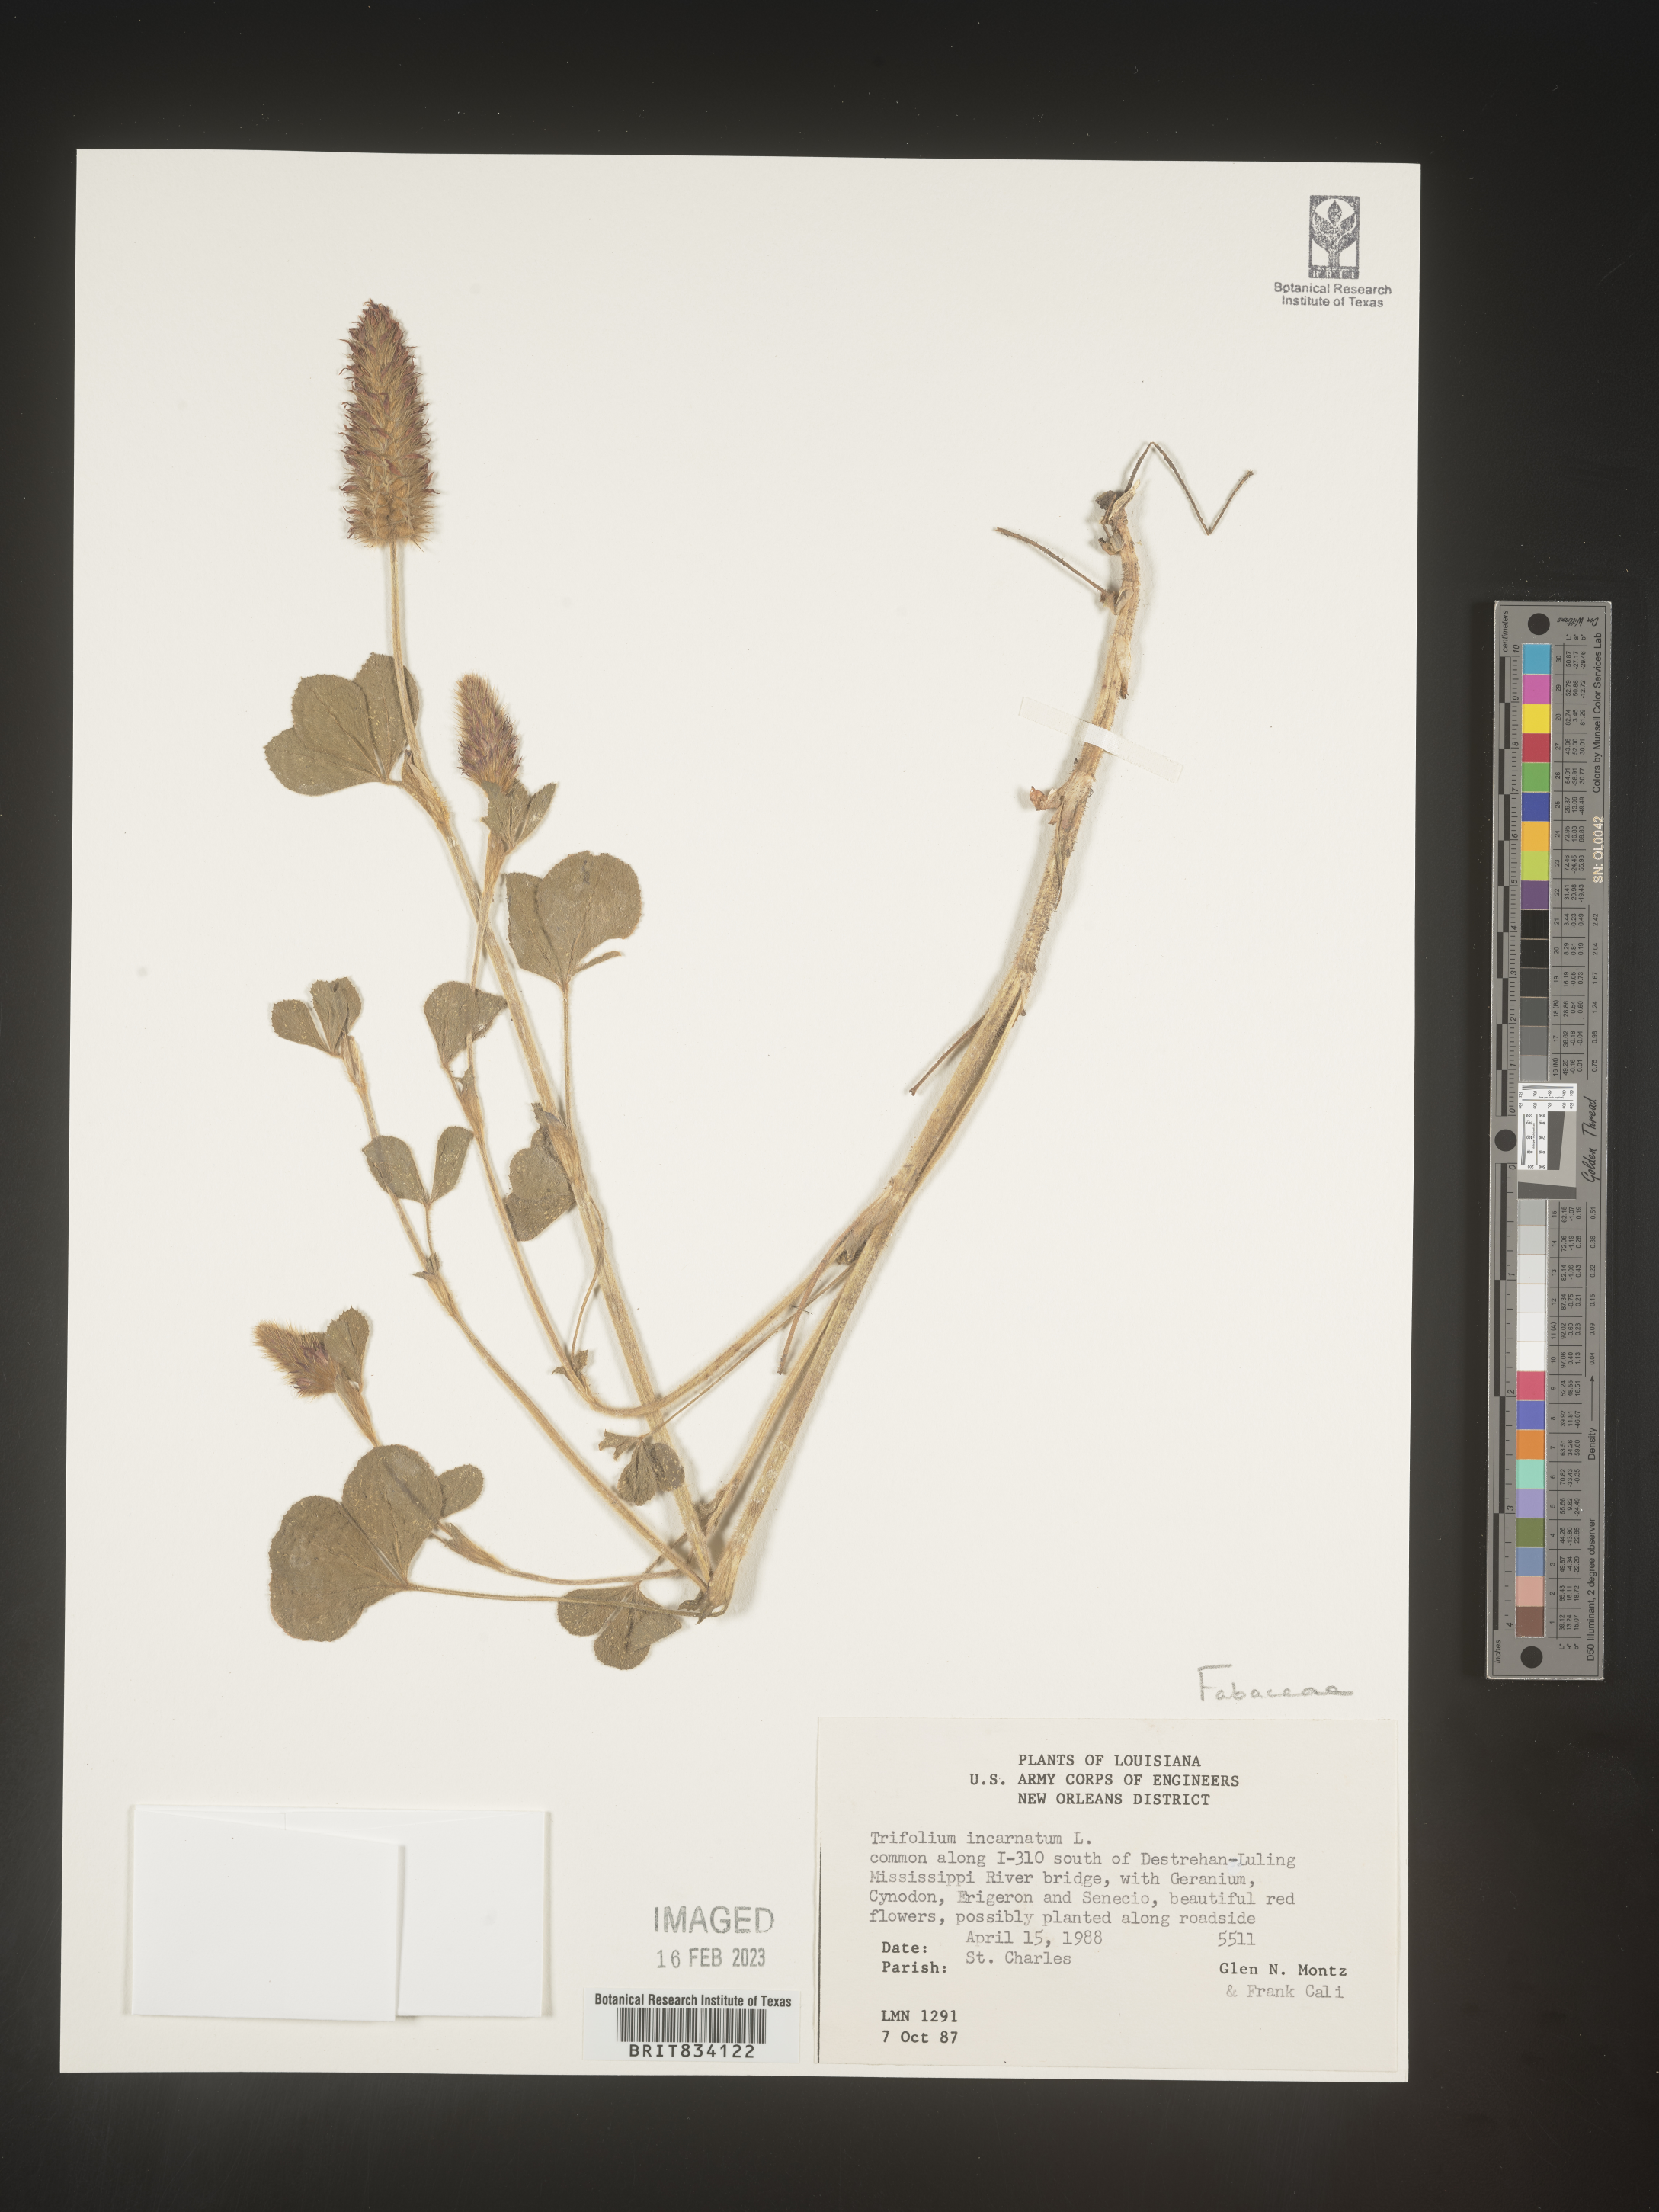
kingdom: Plantae
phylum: Tracheophyta
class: Magnoliopsida
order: Fabales
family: Fabaceae
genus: Trifolium
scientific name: Trifolium incarnatum
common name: Crimson clover
